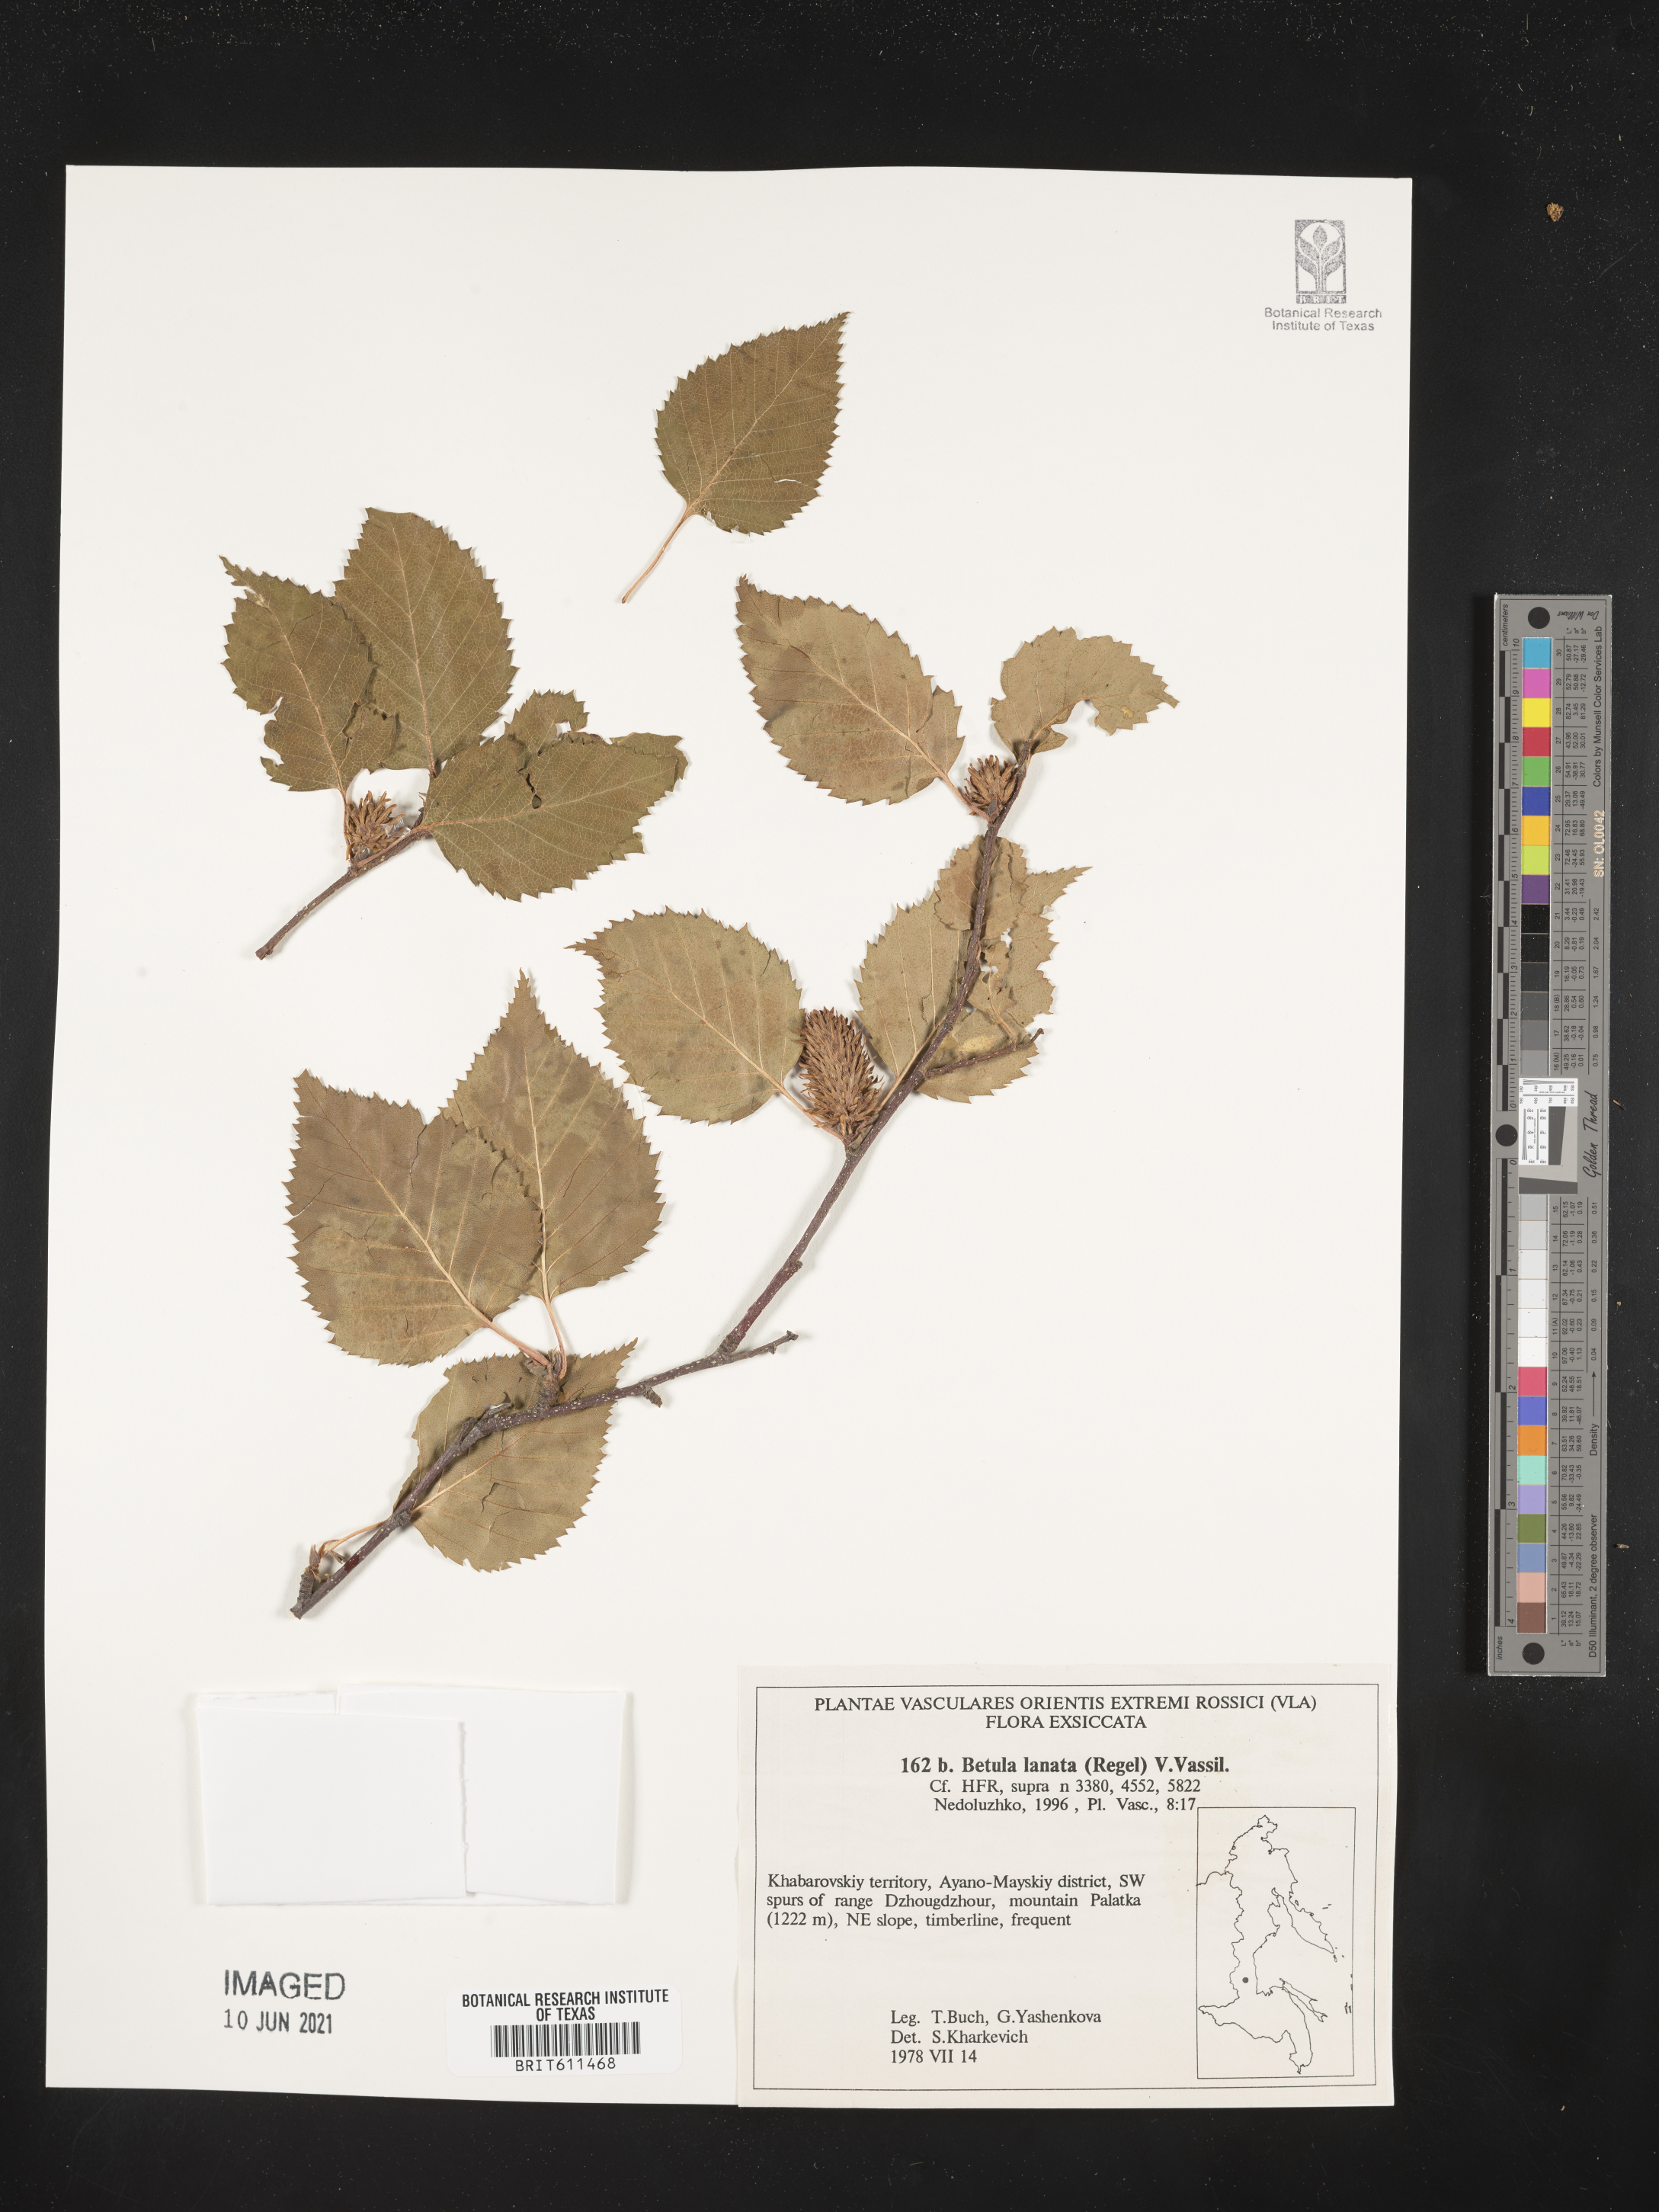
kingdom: Plantae
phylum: Tracheophyta
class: Magnoliopsida
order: Fagales
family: Betulaceae
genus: Betula
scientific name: Betula ermanii
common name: Erman's birch
